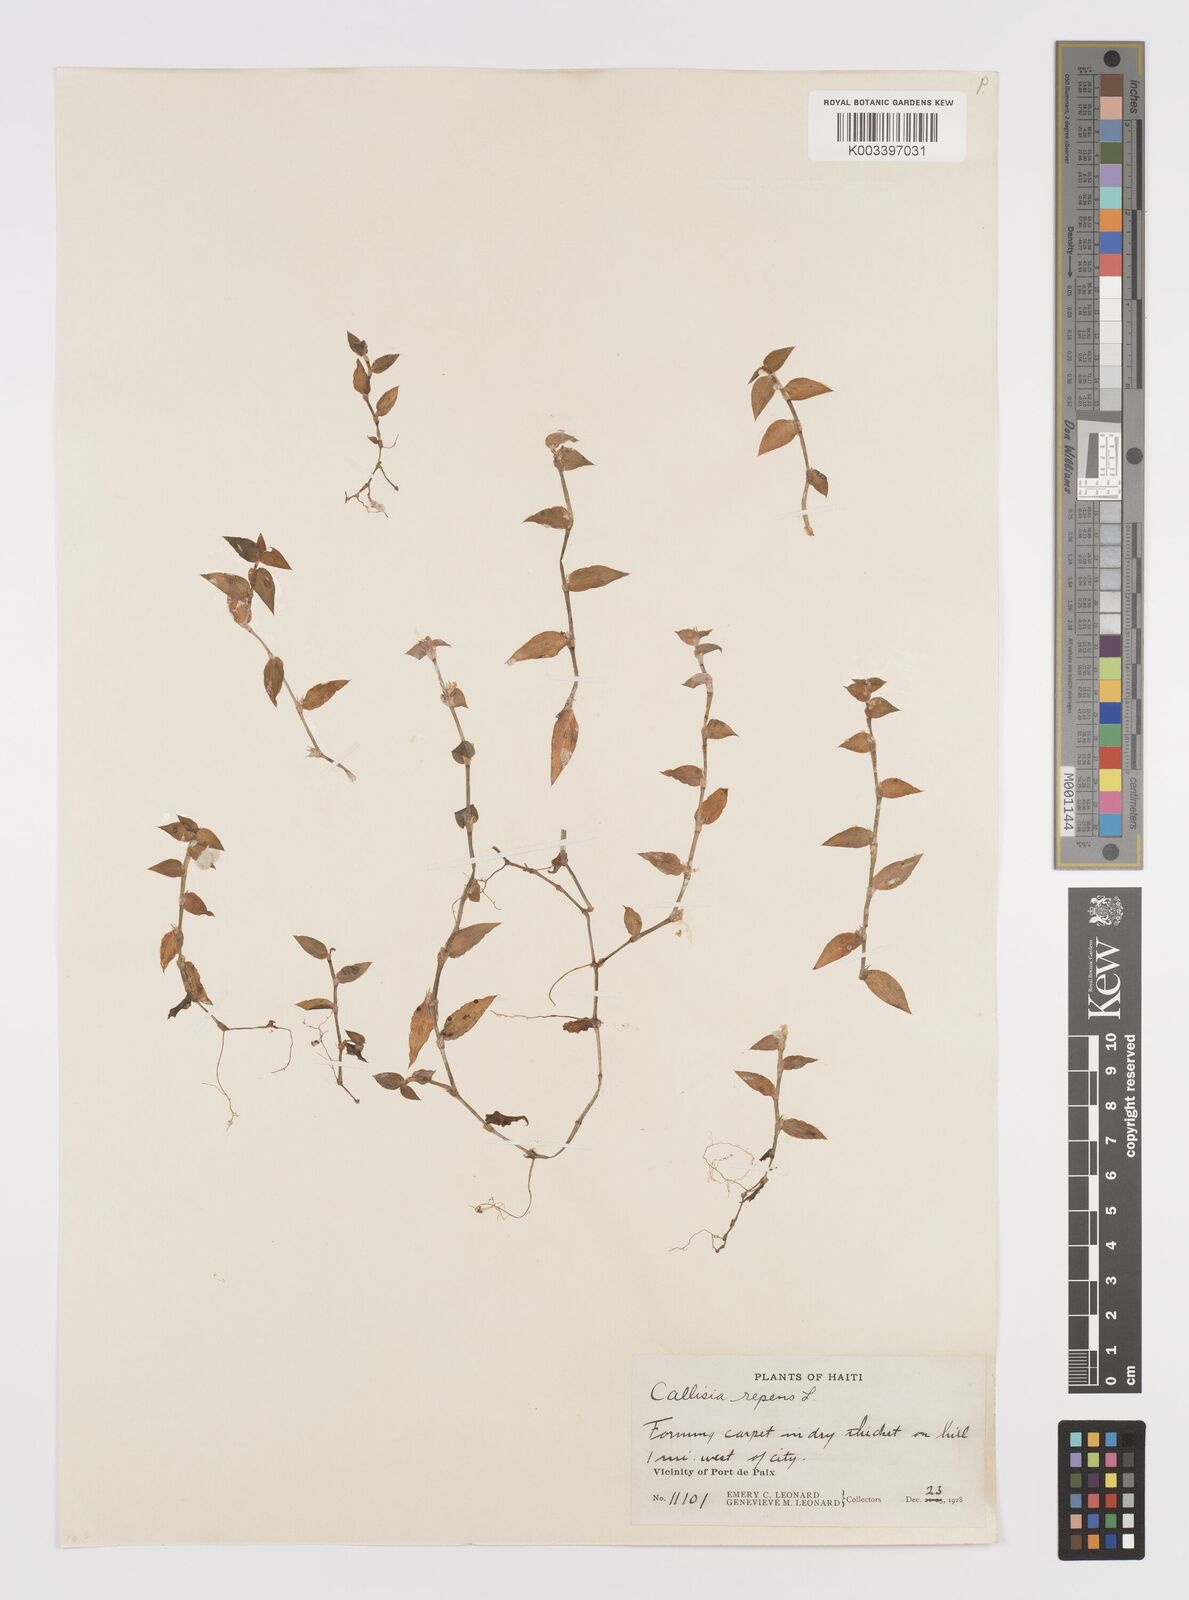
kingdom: Plantae
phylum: Tracheophyta
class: Liliopsida
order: Commelinales
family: Commelinaceae
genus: Callisia
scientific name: Callisia repens
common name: Creeping inchplant
